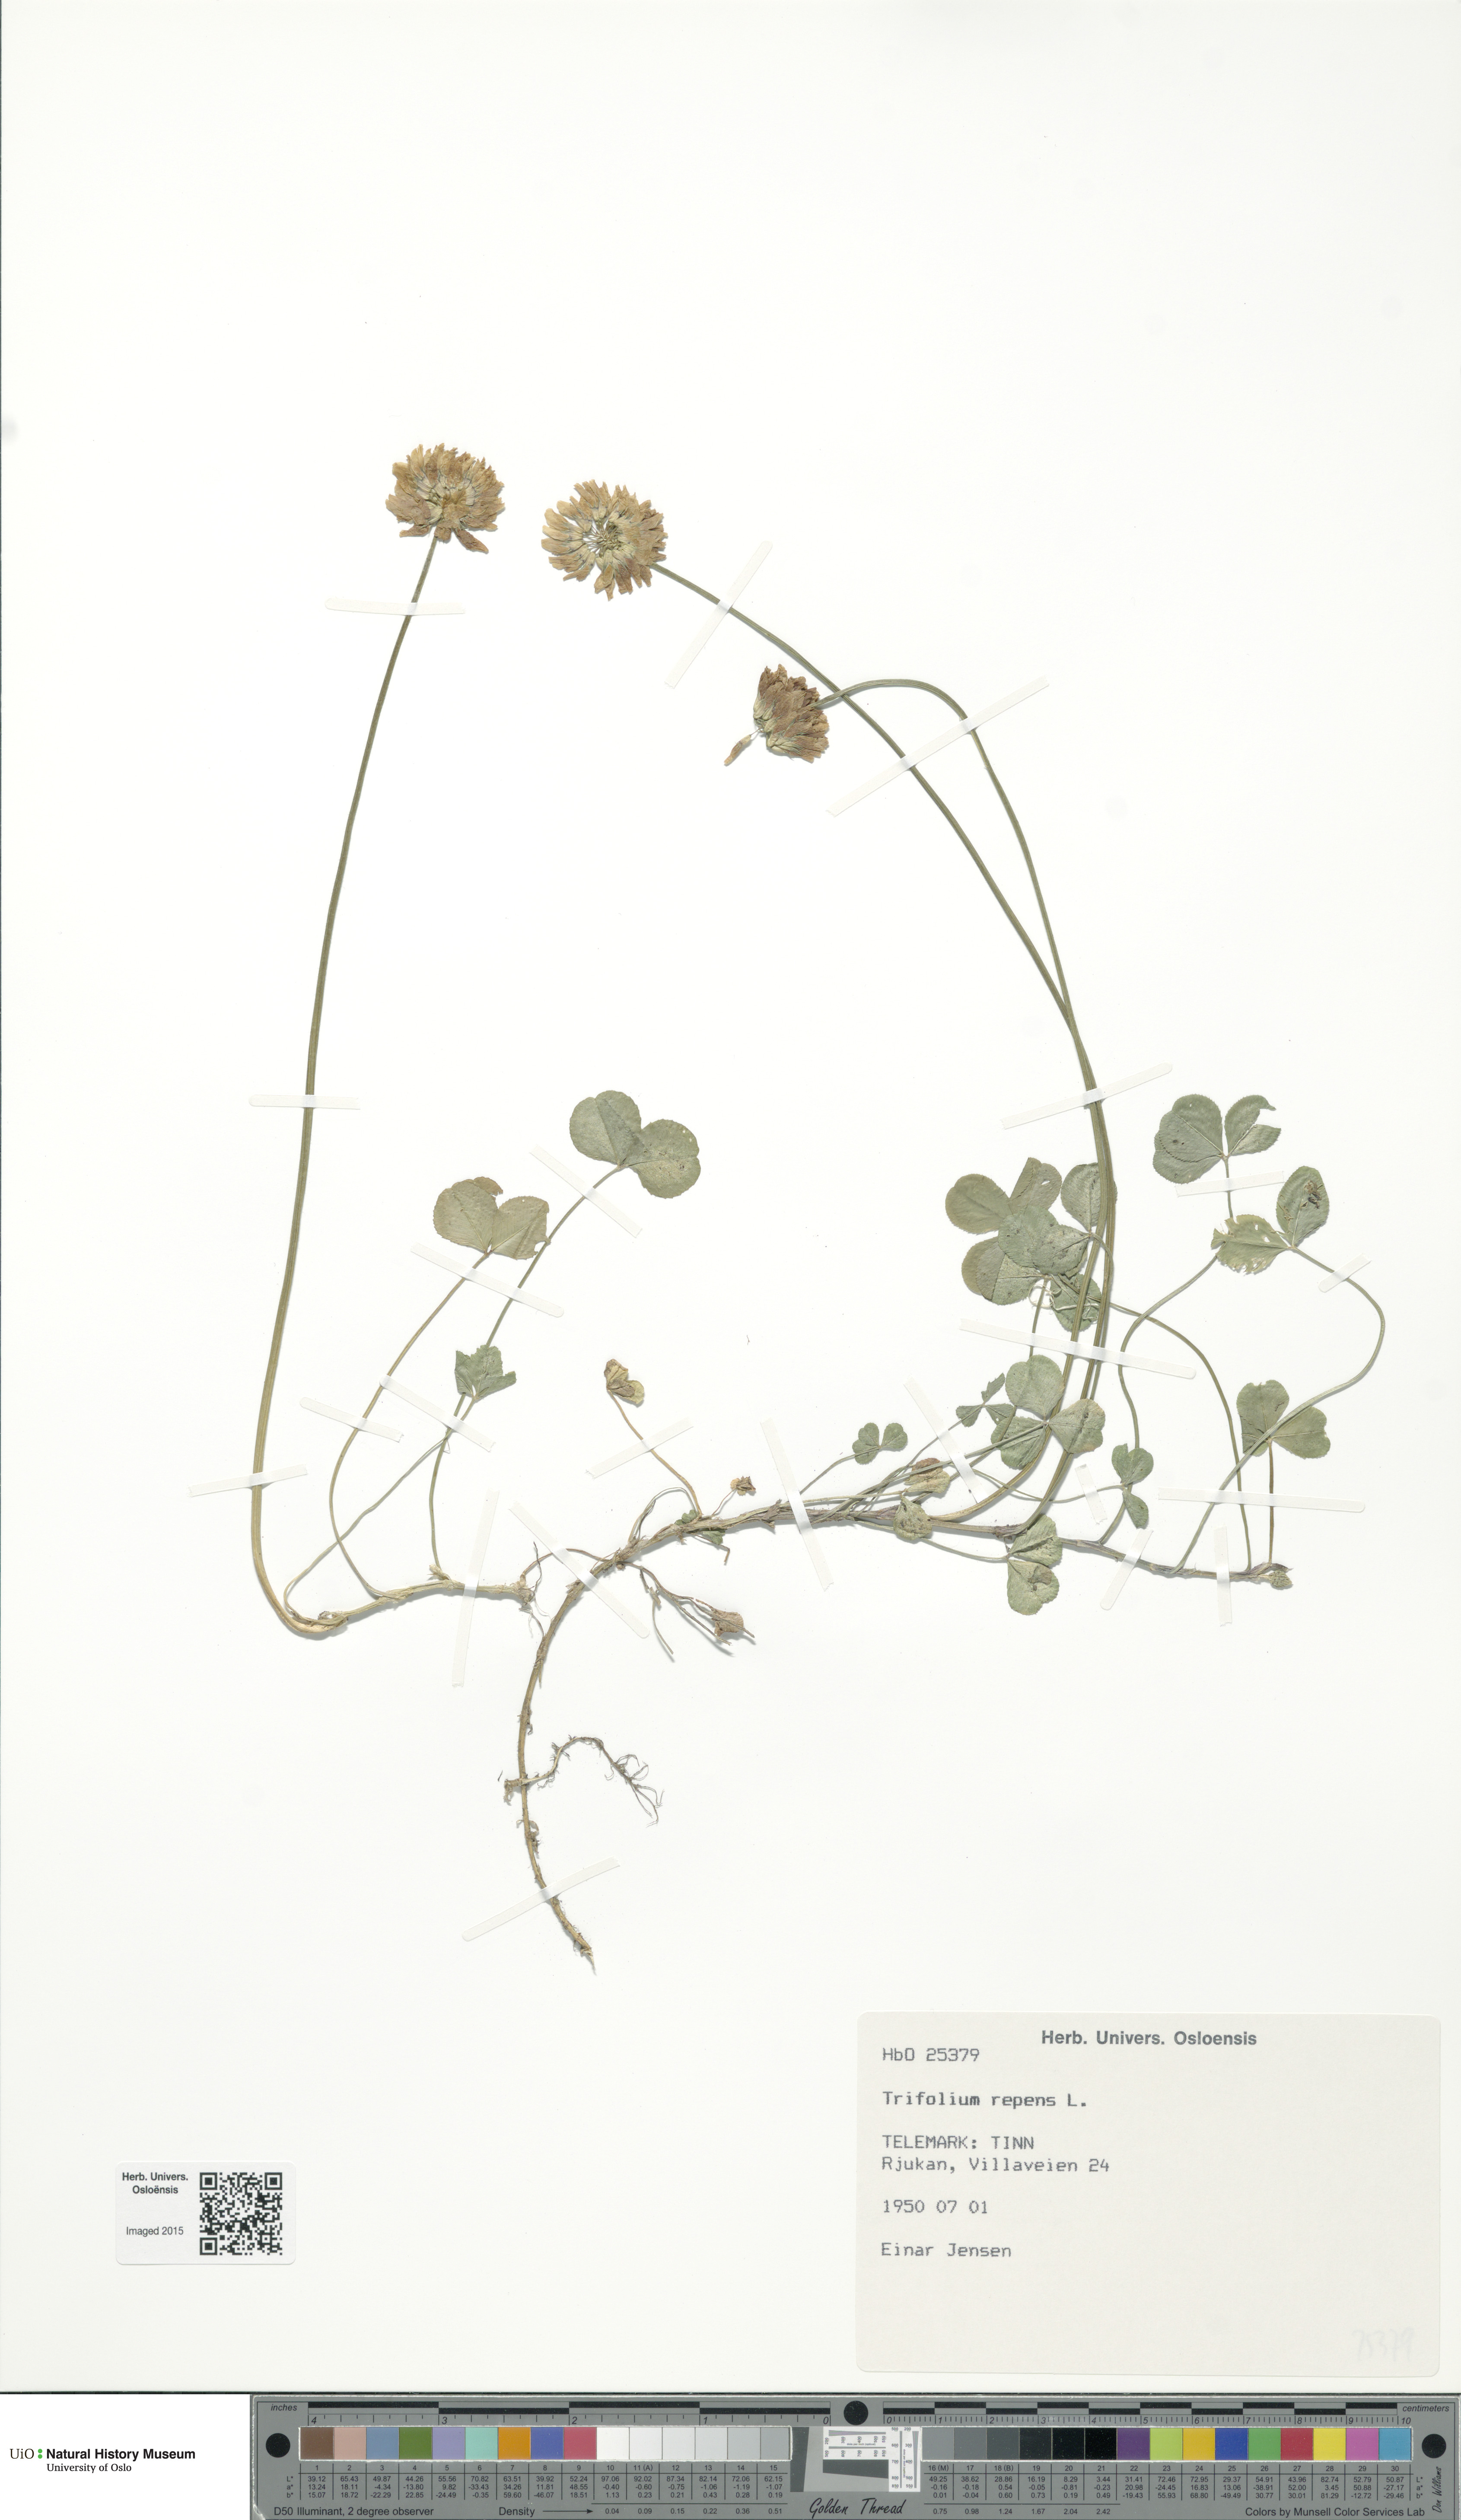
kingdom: Plantae
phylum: Tracheophyta
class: Magnoliopsida
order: Fabales
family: Fabaceae
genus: Trifolium
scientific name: Trifolium repens
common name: White clover
